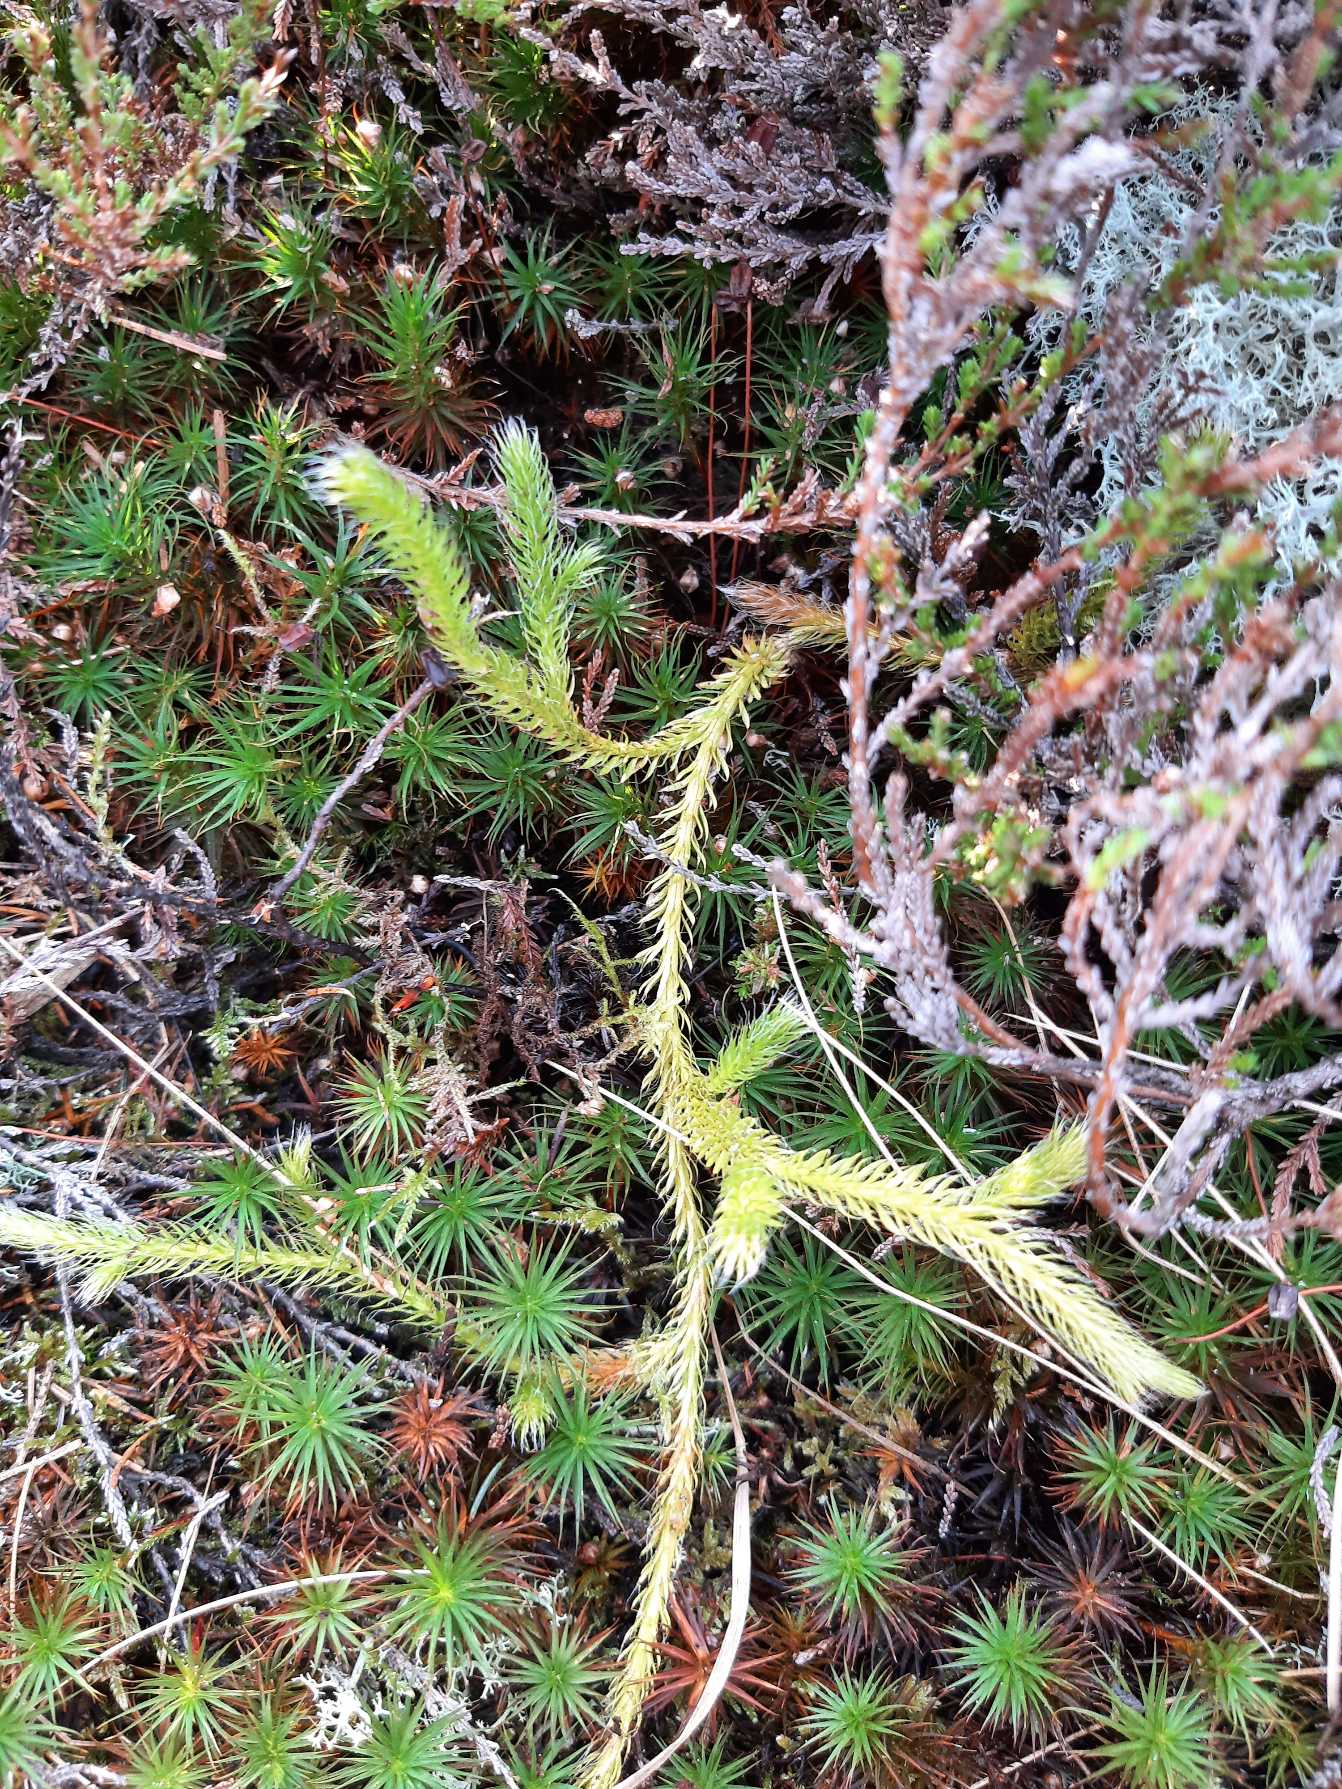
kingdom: Plantae
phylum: Tracheophyta
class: Lycopodiopsida
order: Lycopodiales
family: Lycopodiaceae
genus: Lycopodium
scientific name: Lycopodium clavatum
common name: Almindelig ulvefod
